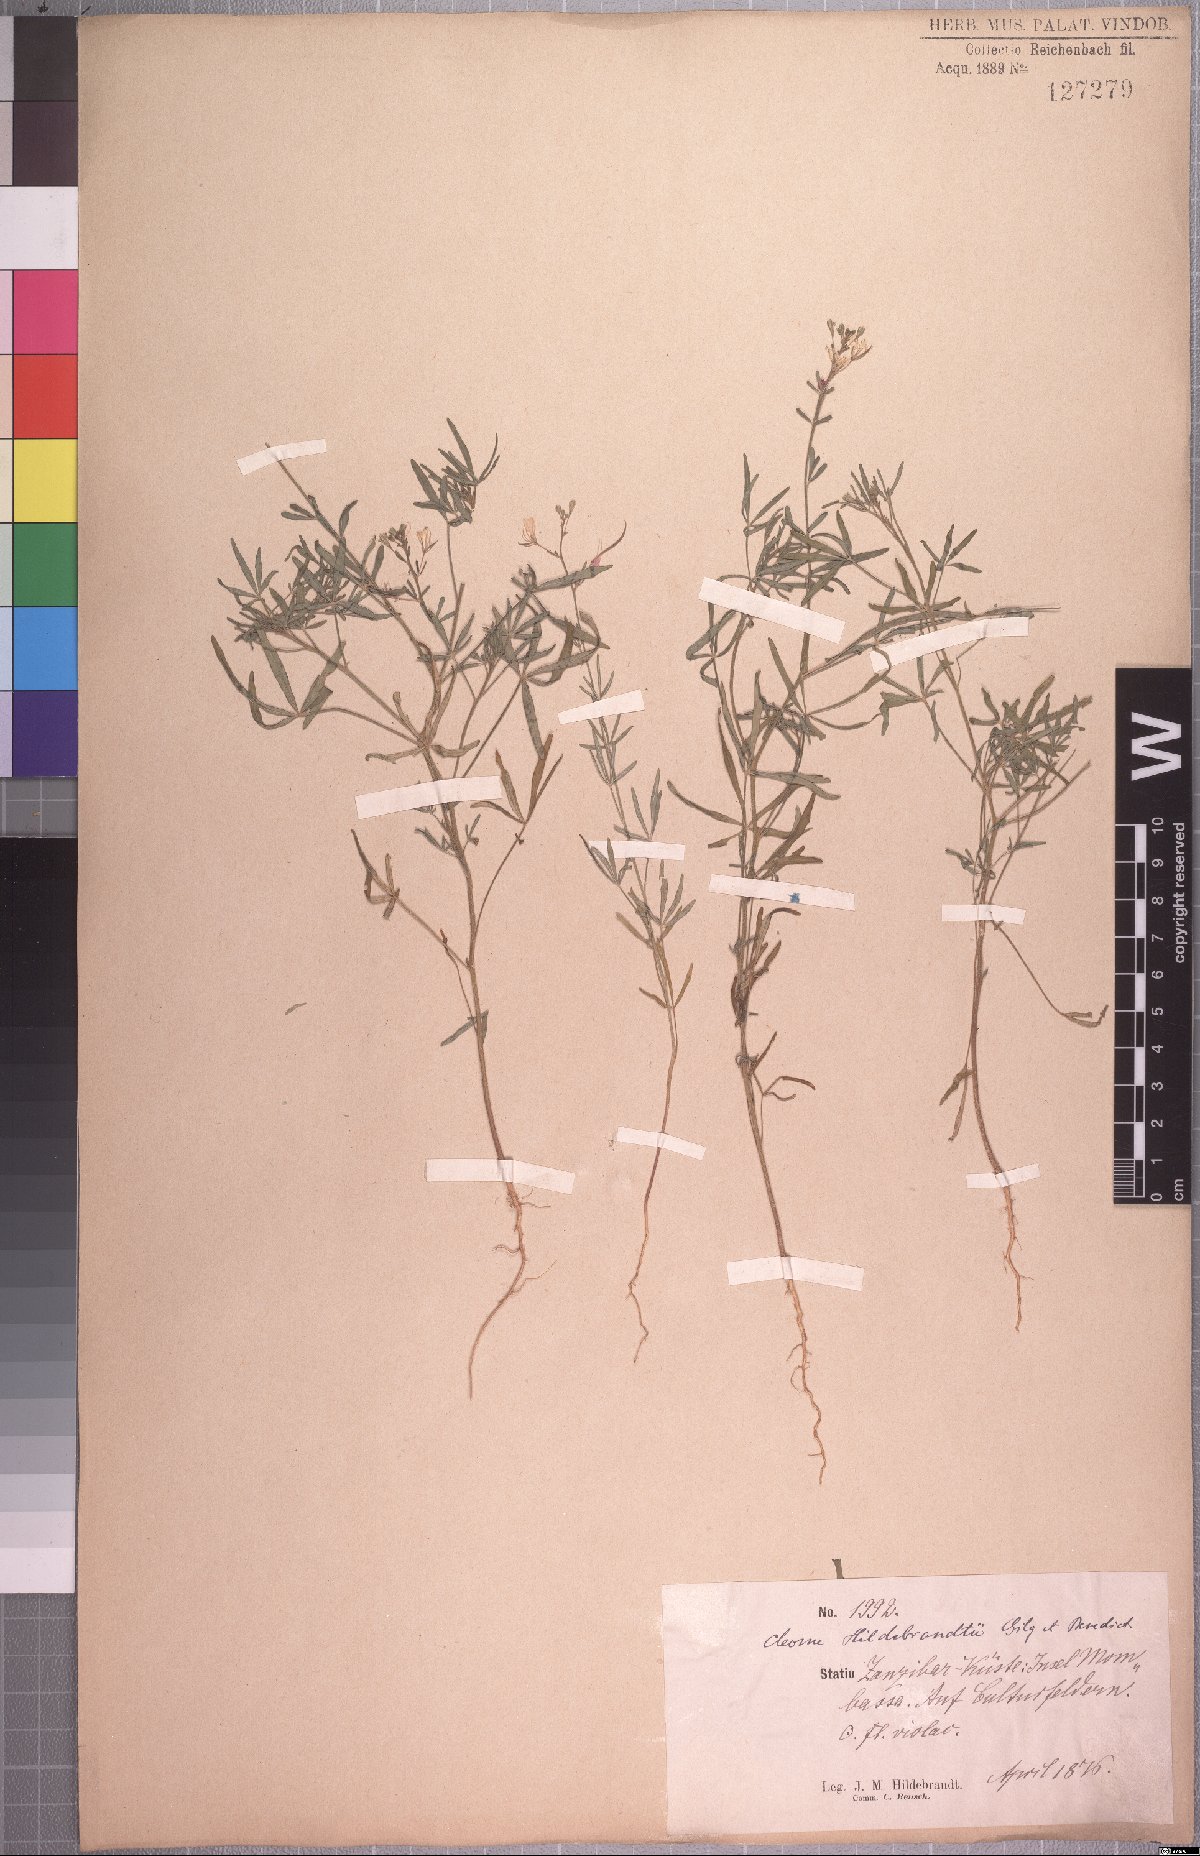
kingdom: Plantae
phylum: Tracheophyta
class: Magnoliopsida
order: Brassicales
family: Cleomaceae
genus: Sieruela
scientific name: Sieruela hirta
